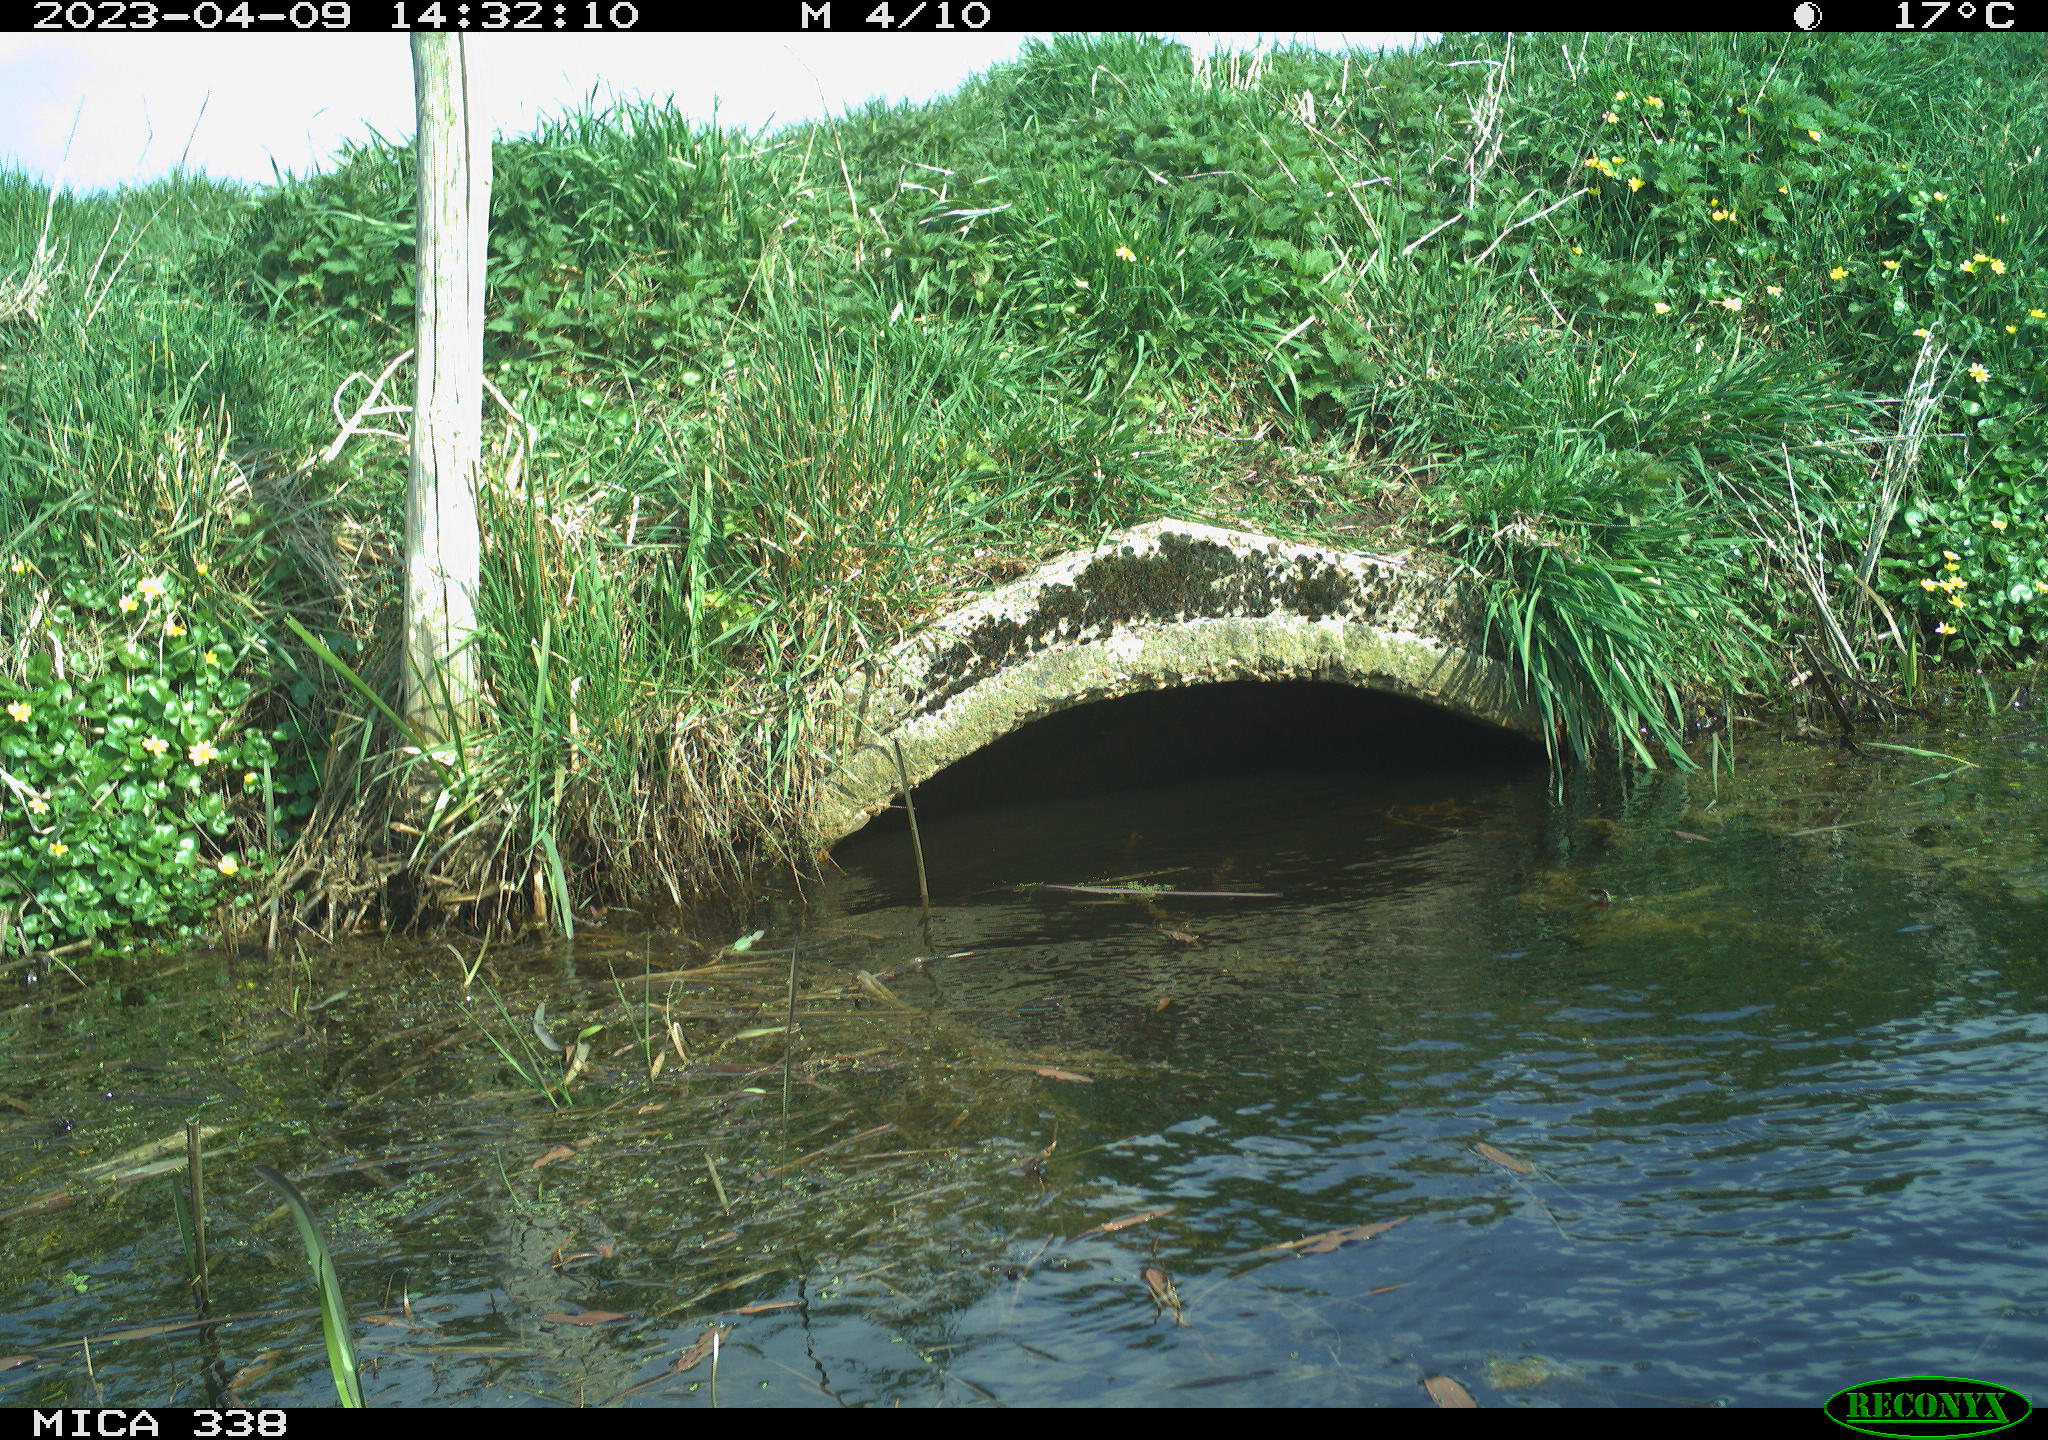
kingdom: Animalia
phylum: Chordata
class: Aves
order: Anseriformes
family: Anatidae
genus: Anas
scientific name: Anas platyrhynchos
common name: Mallard
